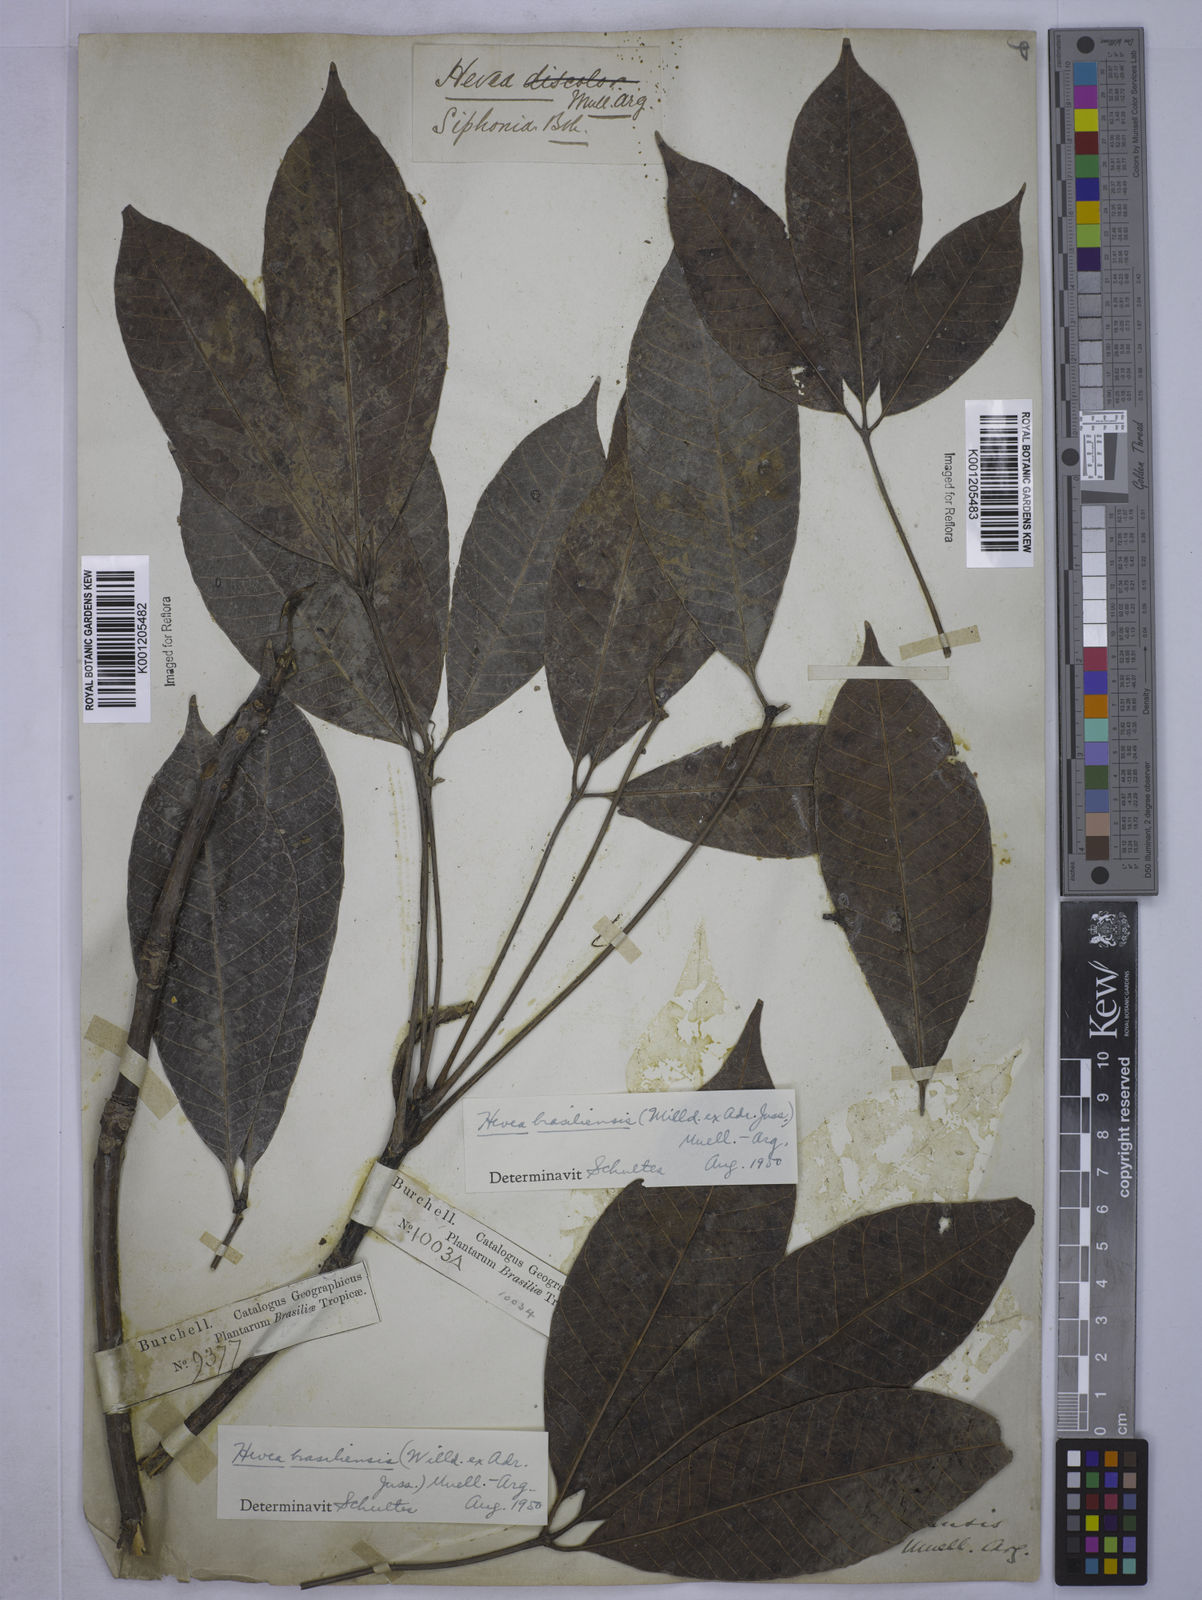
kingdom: Plantae
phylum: Tracheophyta
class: Magnoliopsida
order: Malpighiales
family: Euphorbiaceae
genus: Hevea
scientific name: Hevea
